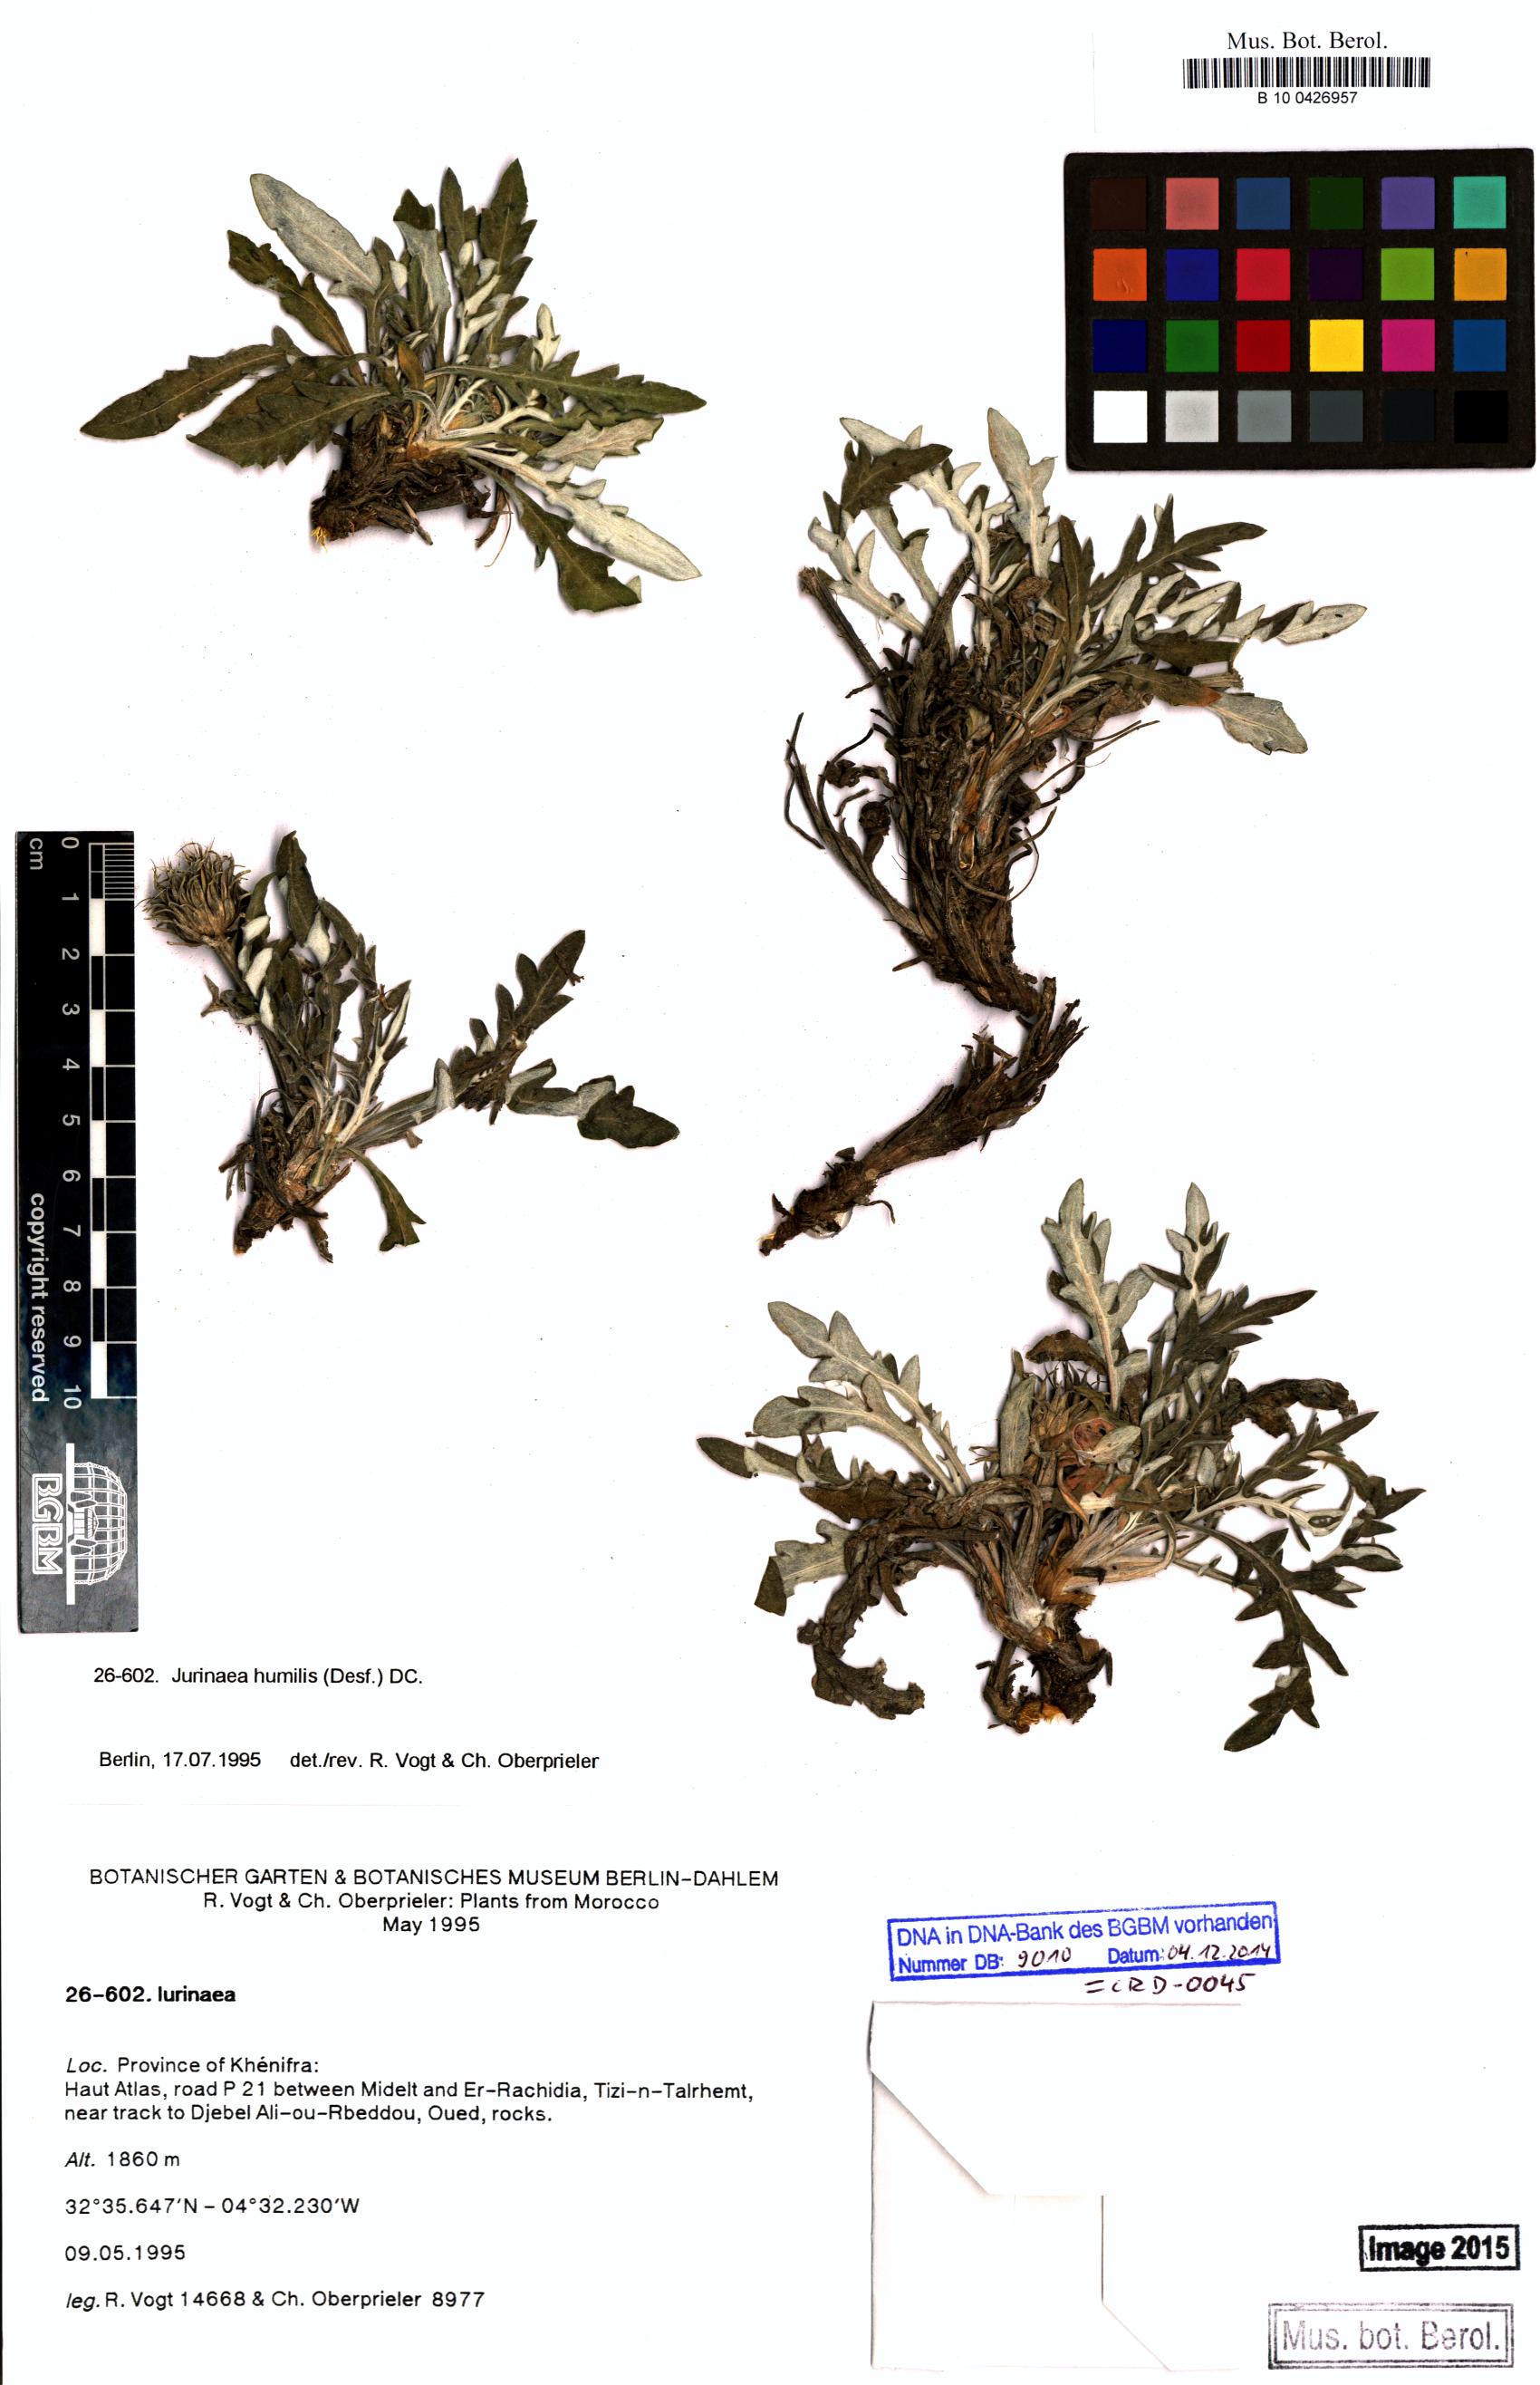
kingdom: Plantae
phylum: Tracheophyta
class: Magnoliopsida
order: Asterales
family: Asteraceae
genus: Jurinea
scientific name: Jurinea humilis
